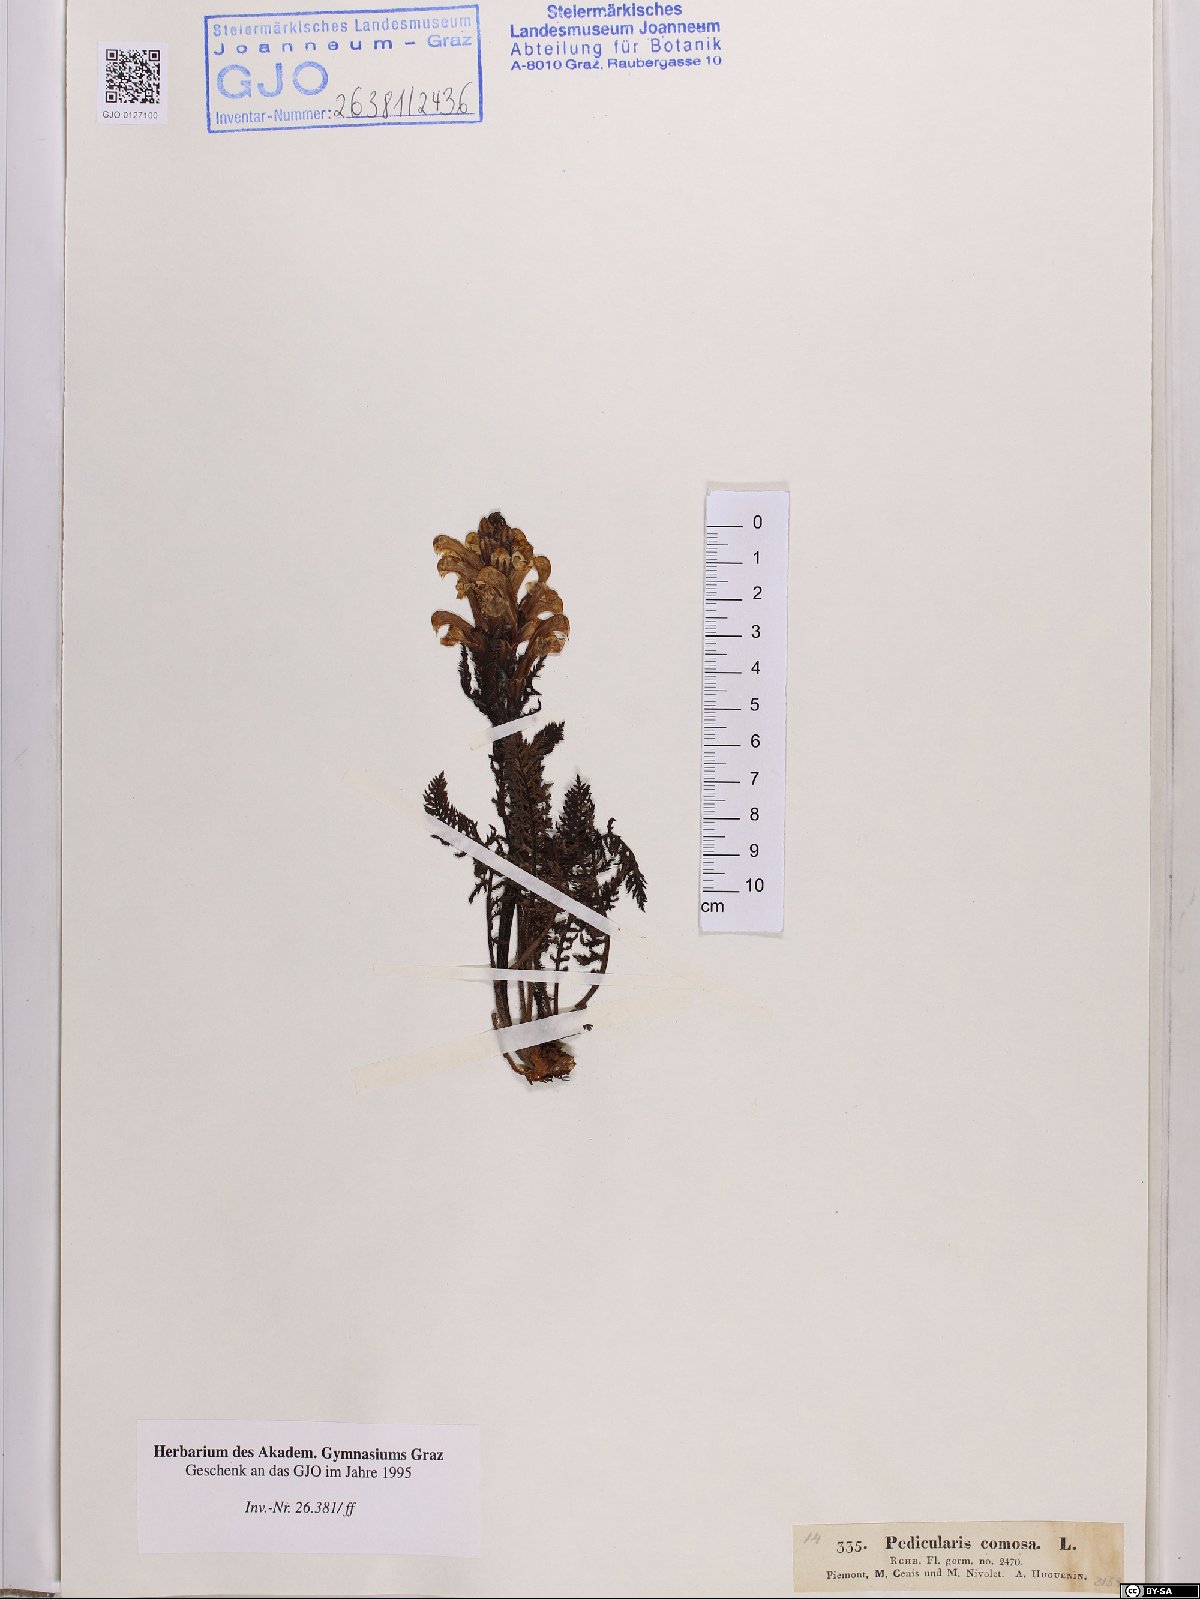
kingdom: Plantae
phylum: Tracheophyta
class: Magnoliopsida
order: Lamiales
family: Orobanchaceae
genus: Pedicularis
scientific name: Pedicularis comosa
